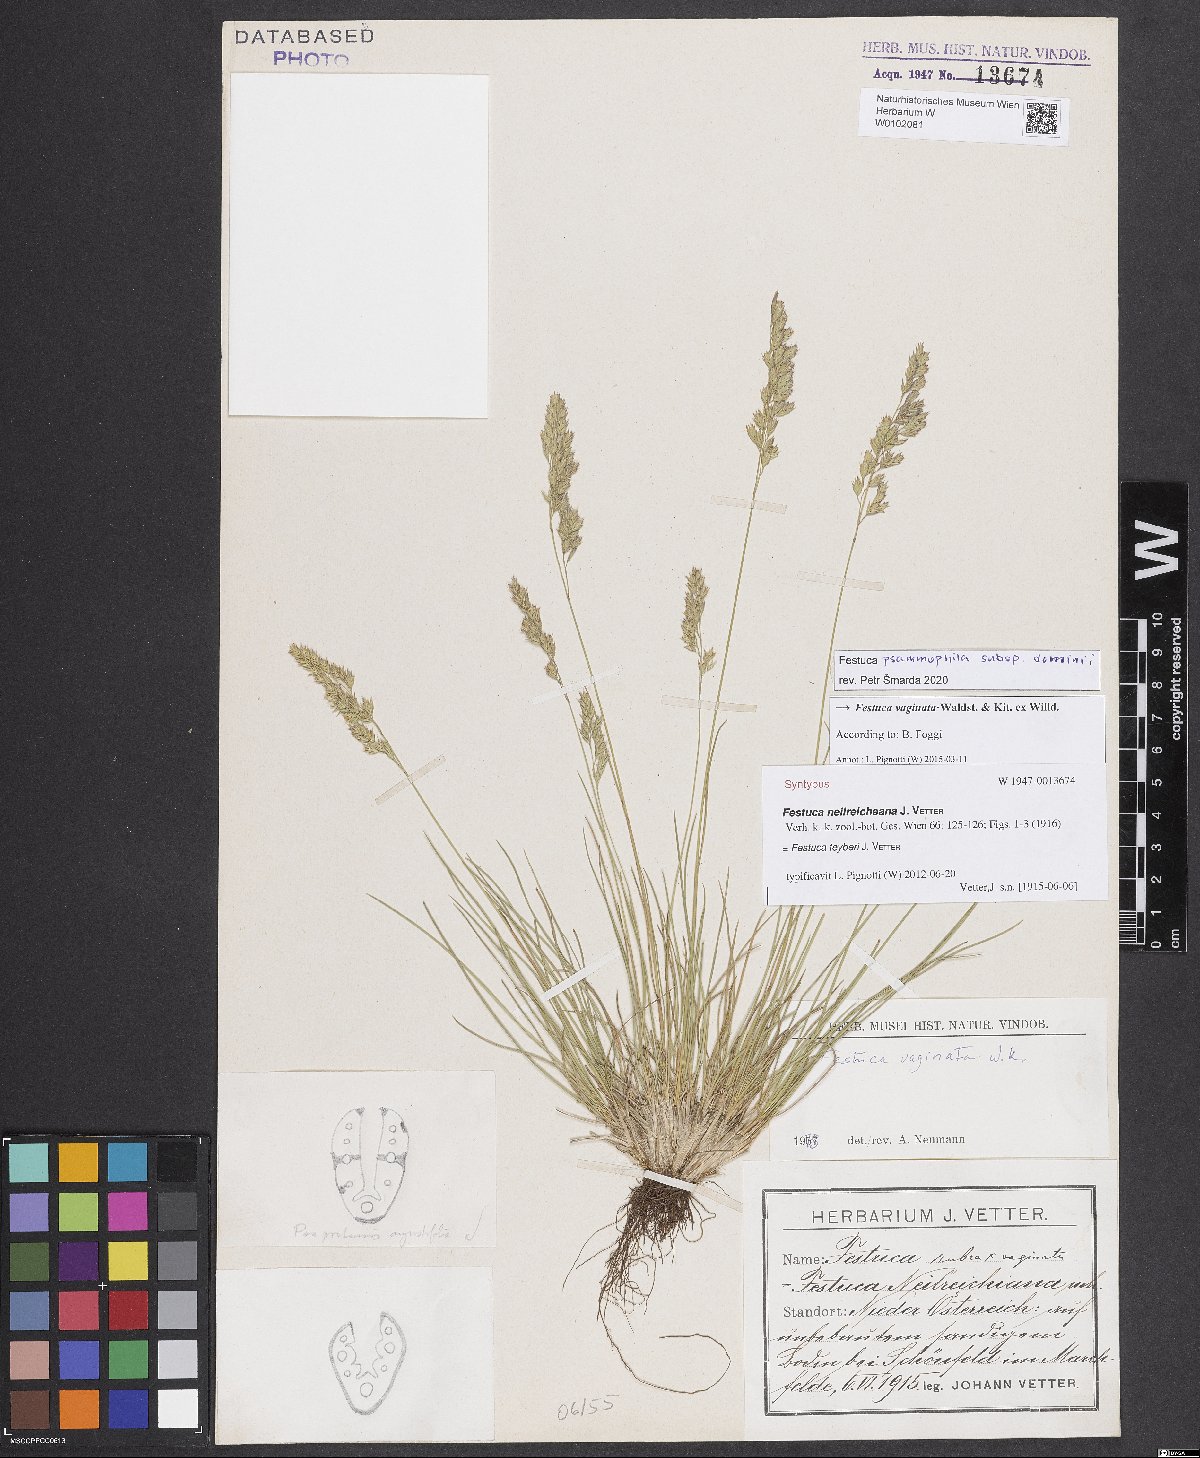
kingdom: Plantae
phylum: Tracheophyta
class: Liliopsida
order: Poales
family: Poaceae
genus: Festuca
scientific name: Festuca vaginata
